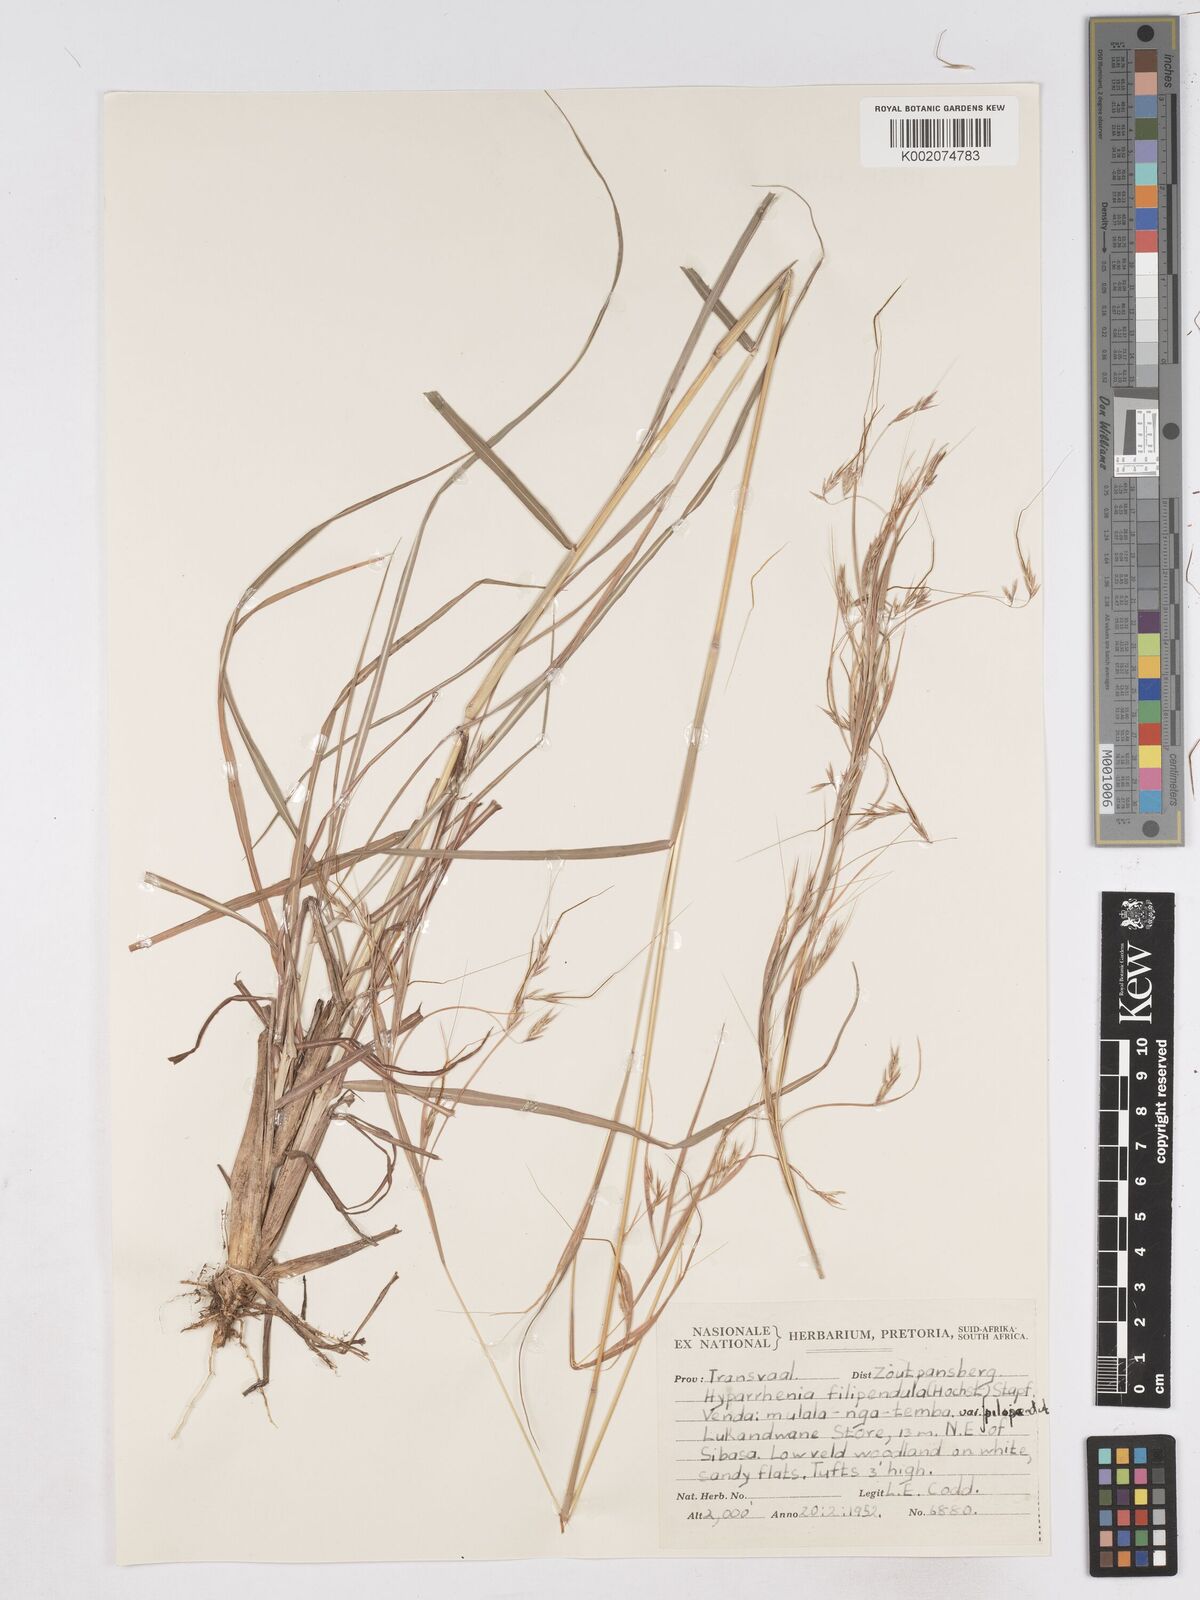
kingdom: Plantae
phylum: Tracheophyta
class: Liliopsida
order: Poales
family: Poaceae
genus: Hyparrhenia
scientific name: Hyparrhenia filipendula
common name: Tambookie grass
